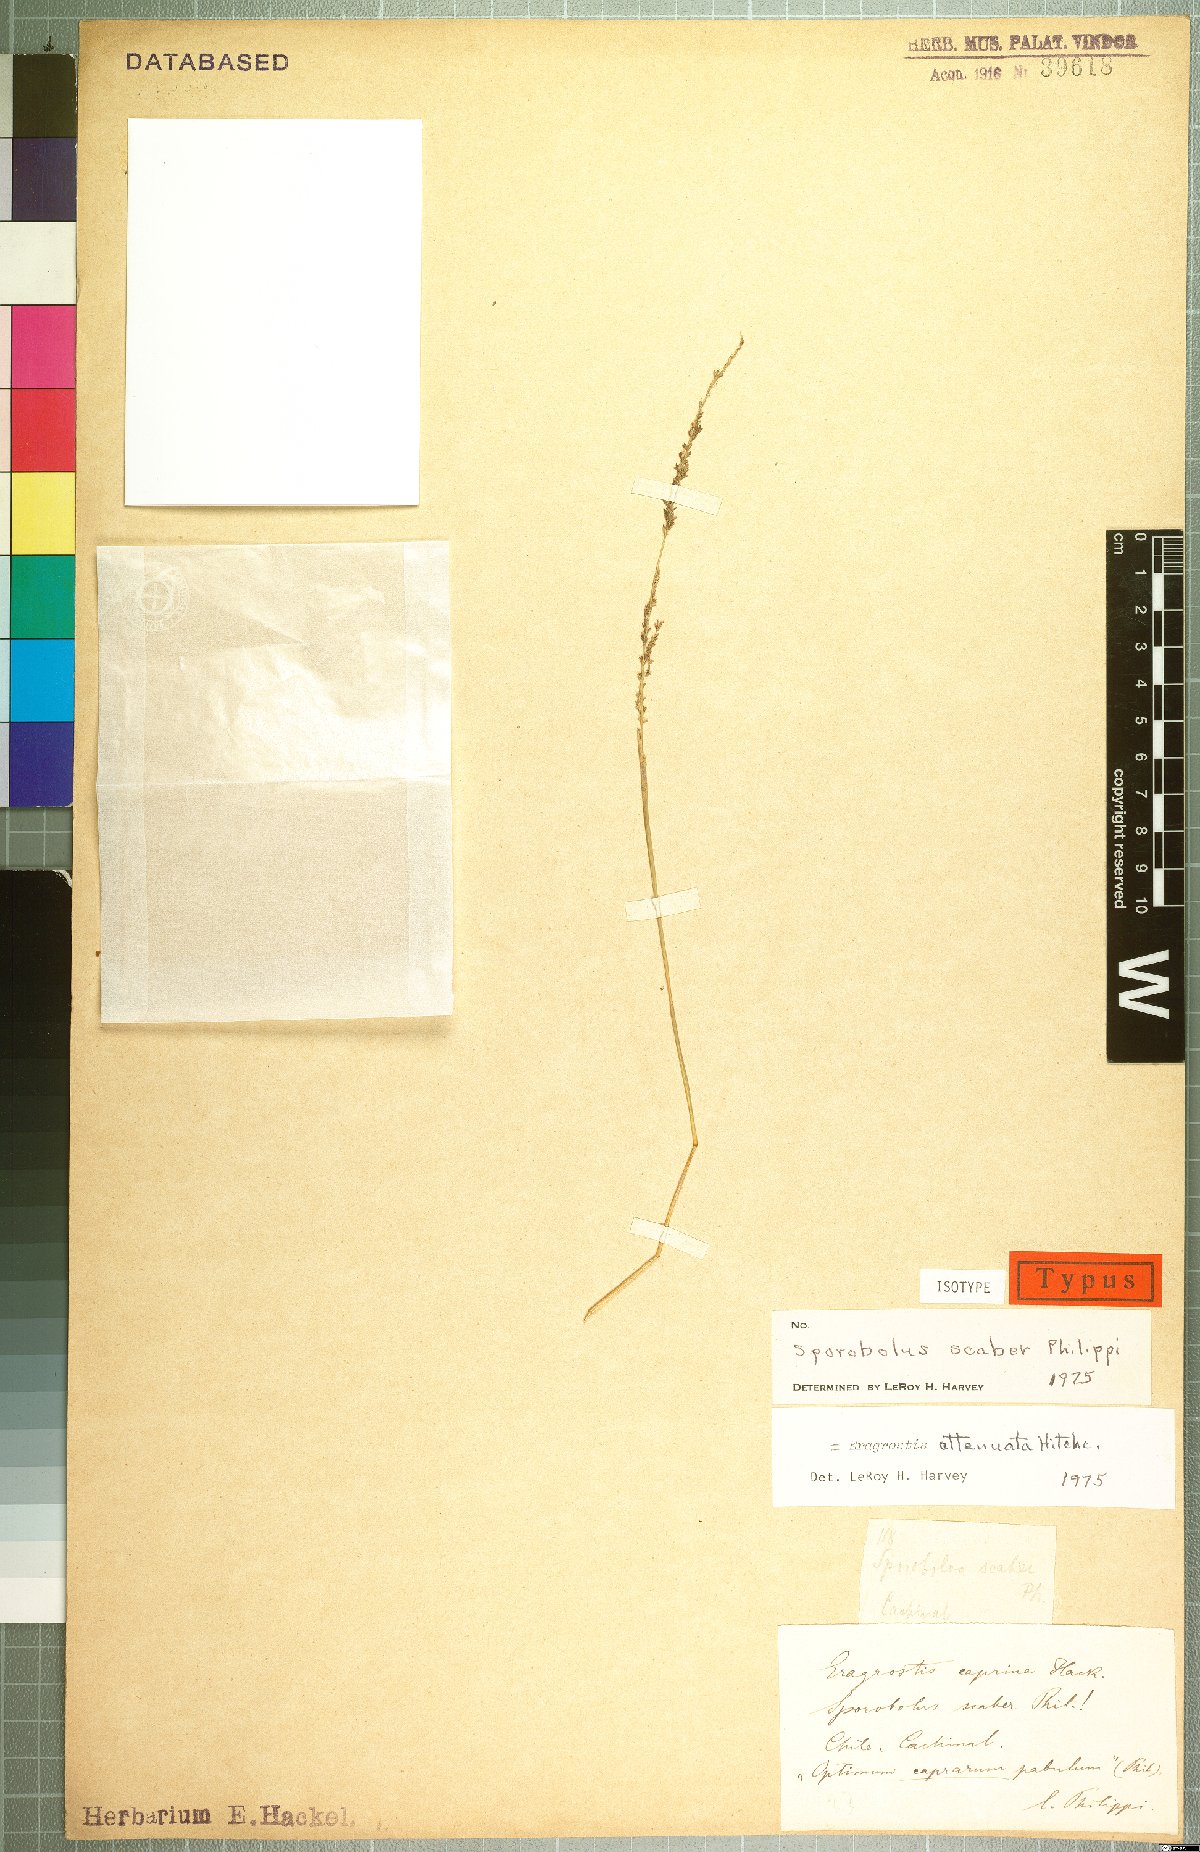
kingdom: Plantae
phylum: Tracheophyta
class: Liliopsida
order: Poales
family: Poaceae
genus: Eragrostis
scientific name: Eragrostis attenuata
